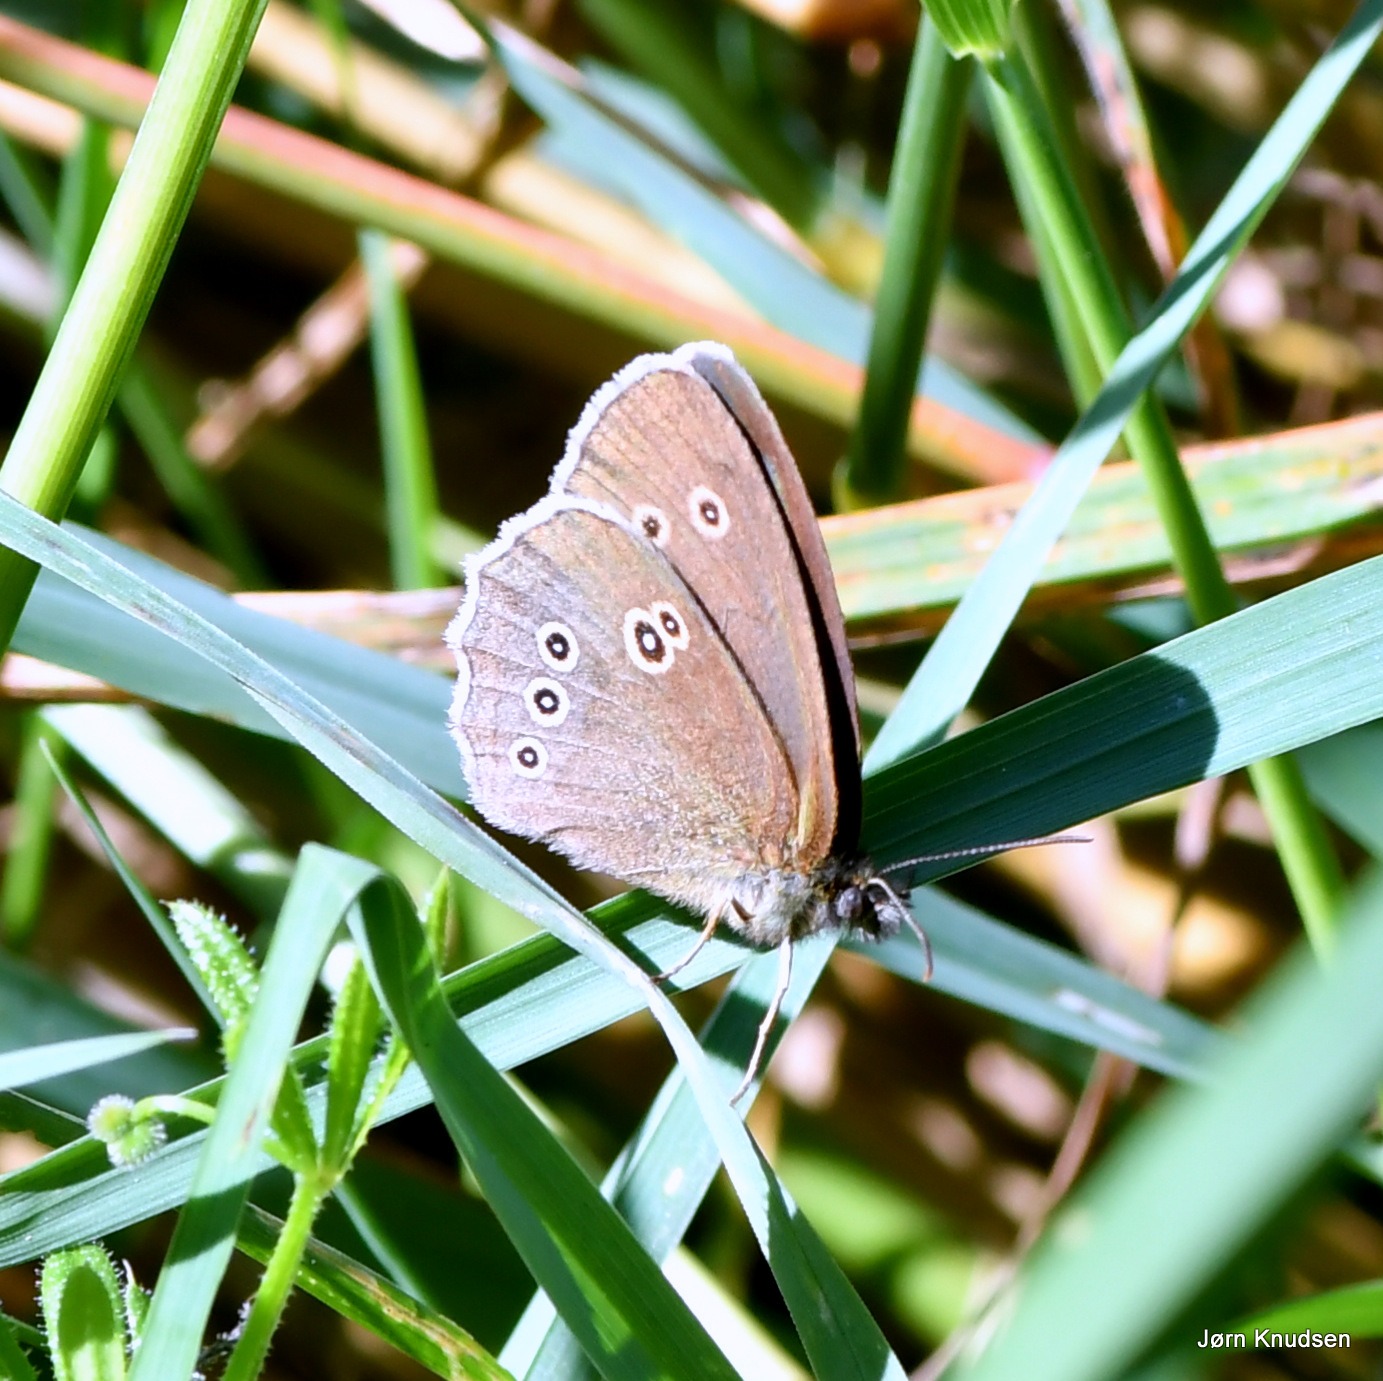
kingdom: Animalia
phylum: Arthropoda
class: Insecta
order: Lepidoptera
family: Nymphalidae
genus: Aphantopus
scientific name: Aphantopus hyperantus
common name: Engrandøje
